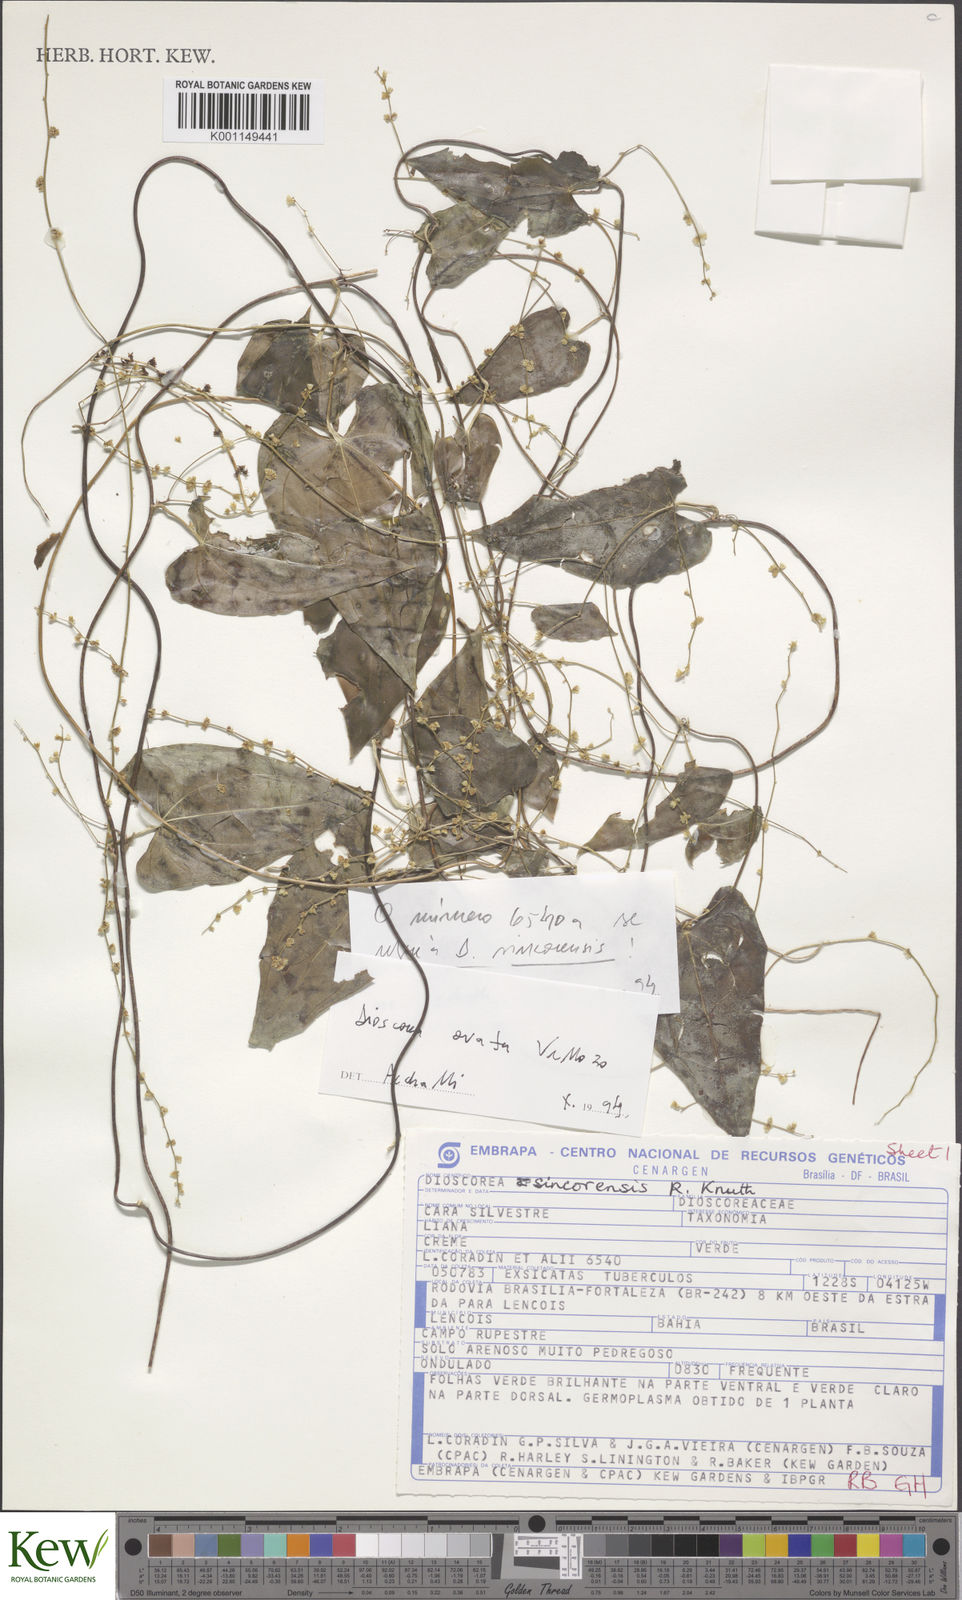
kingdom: Plantae
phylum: Tracheophyta
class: Liliopsida
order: Dioscoreales
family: Dioscoreaceae
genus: Dioscorea
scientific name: Dioscorea ovata
